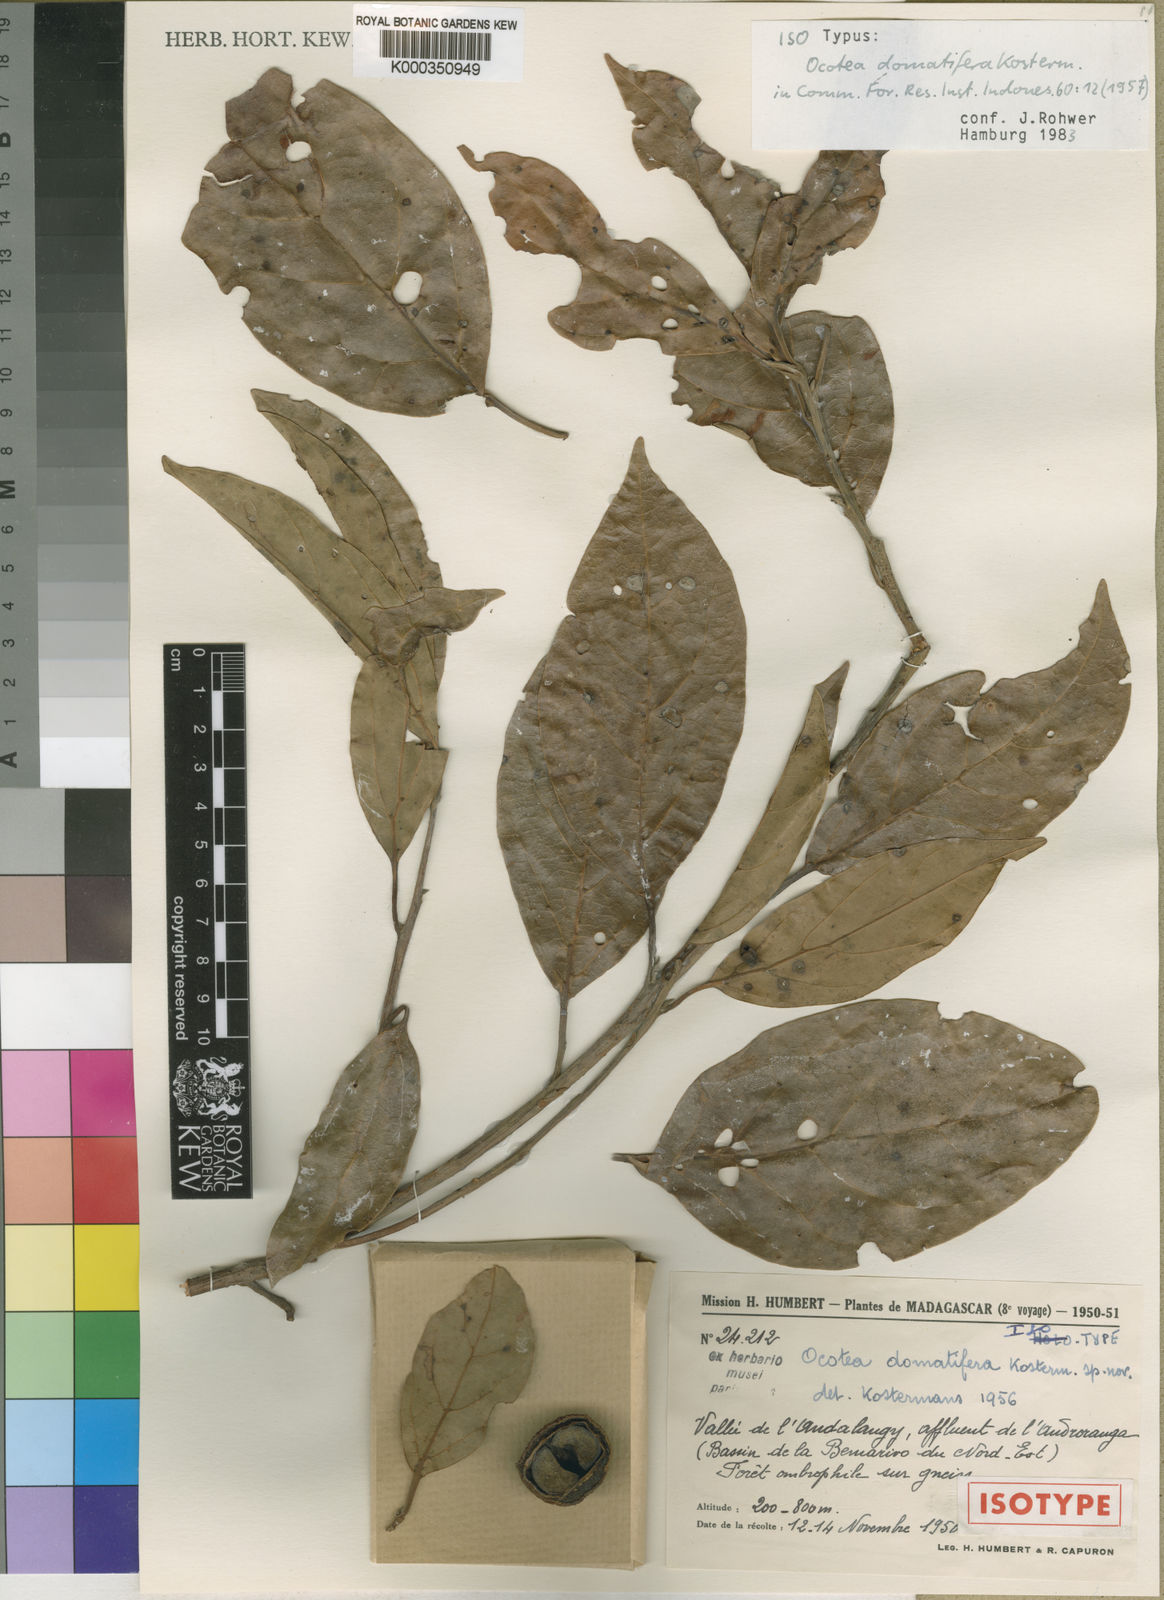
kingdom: Plantae
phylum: Tracheophyta
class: Magnoliopsida
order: Laurales
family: Lauraceae
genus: Ocotea
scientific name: Ocotea humblotii
